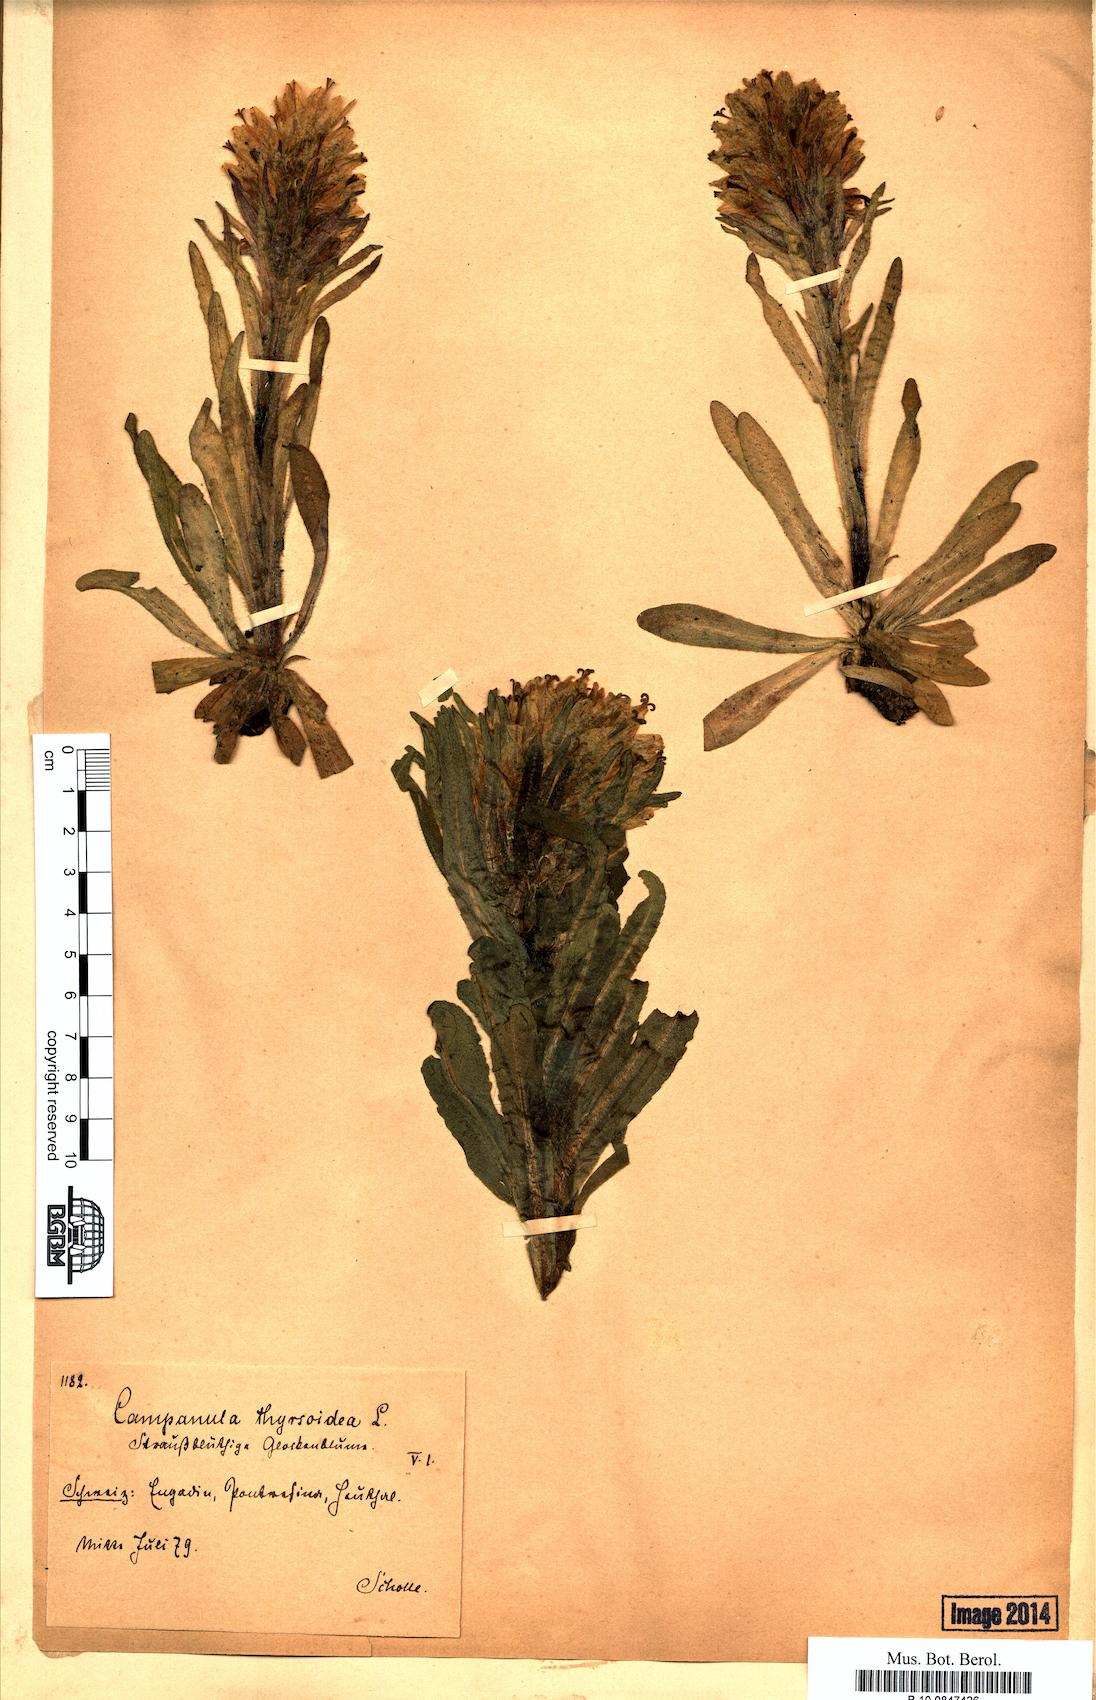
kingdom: Plantae
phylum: Tracheophyta
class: Magnoliopsida
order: Asterales
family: Campanulaceae
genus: Campanula
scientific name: Campanula thyrsoides
